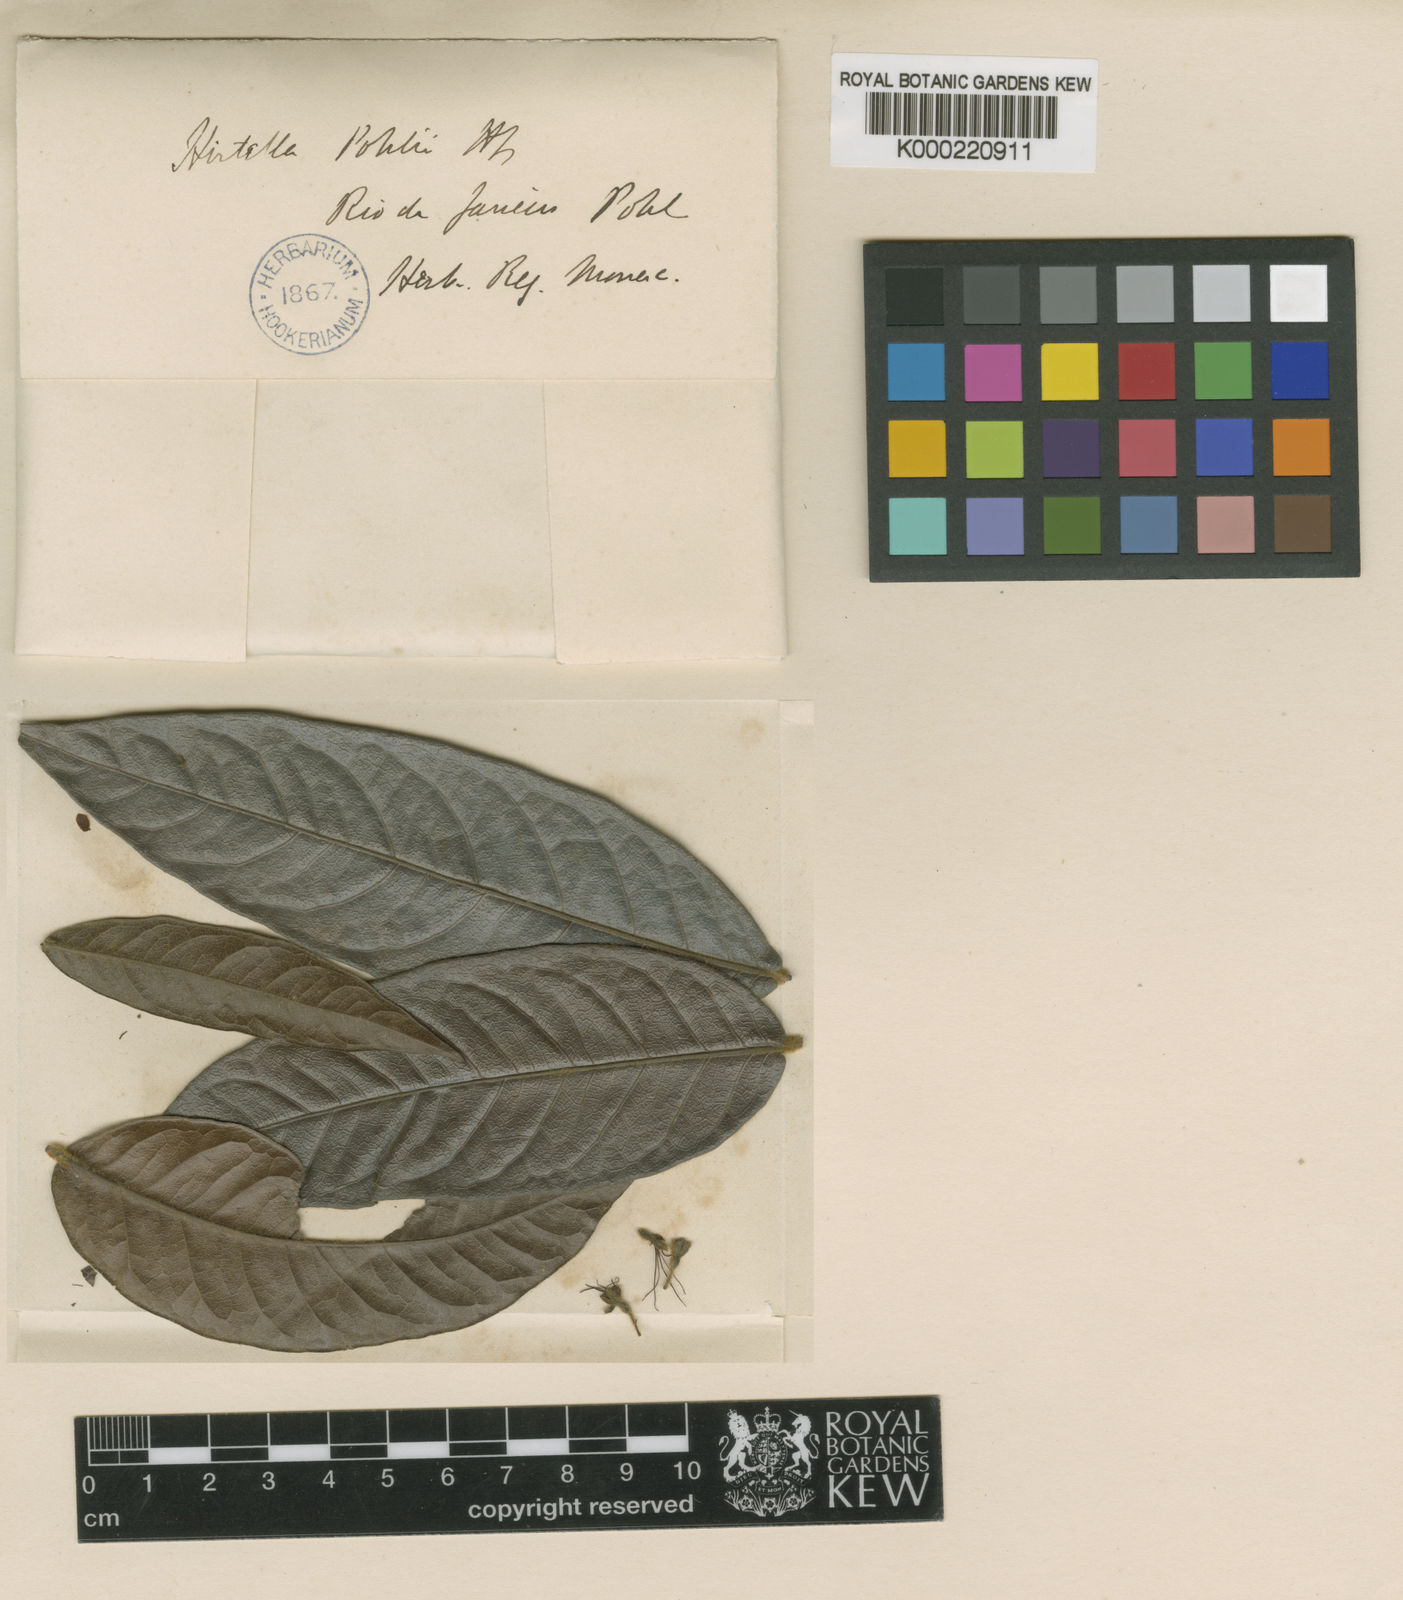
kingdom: Plantae
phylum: Tracheophyta
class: Magnoliopsida
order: Malpighiales
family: Chrysobalanaceae
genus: Hirtella
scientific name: Hirtella pohlii
